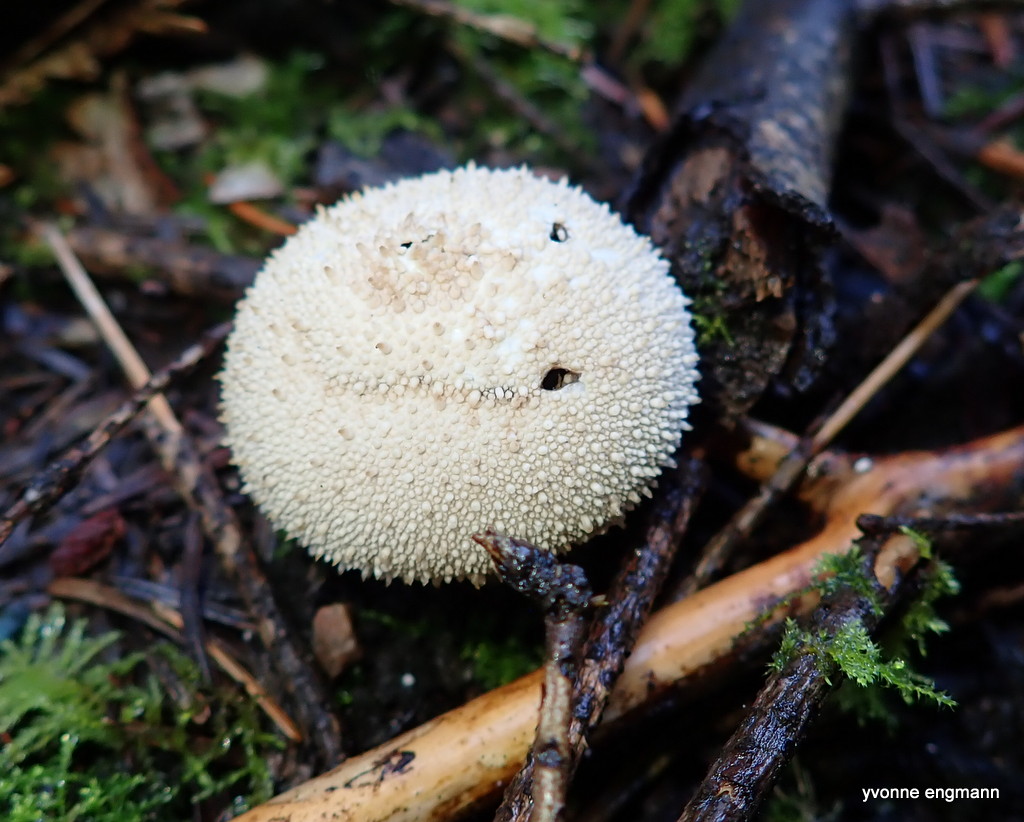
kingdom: Fungi
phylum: Basidiomycota
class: Agaricomycetes
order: Agaricales
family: Lycoperdaceae
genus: Lycoperdon
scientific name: Lycoperdon perlatum
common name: krystal-støvbold
